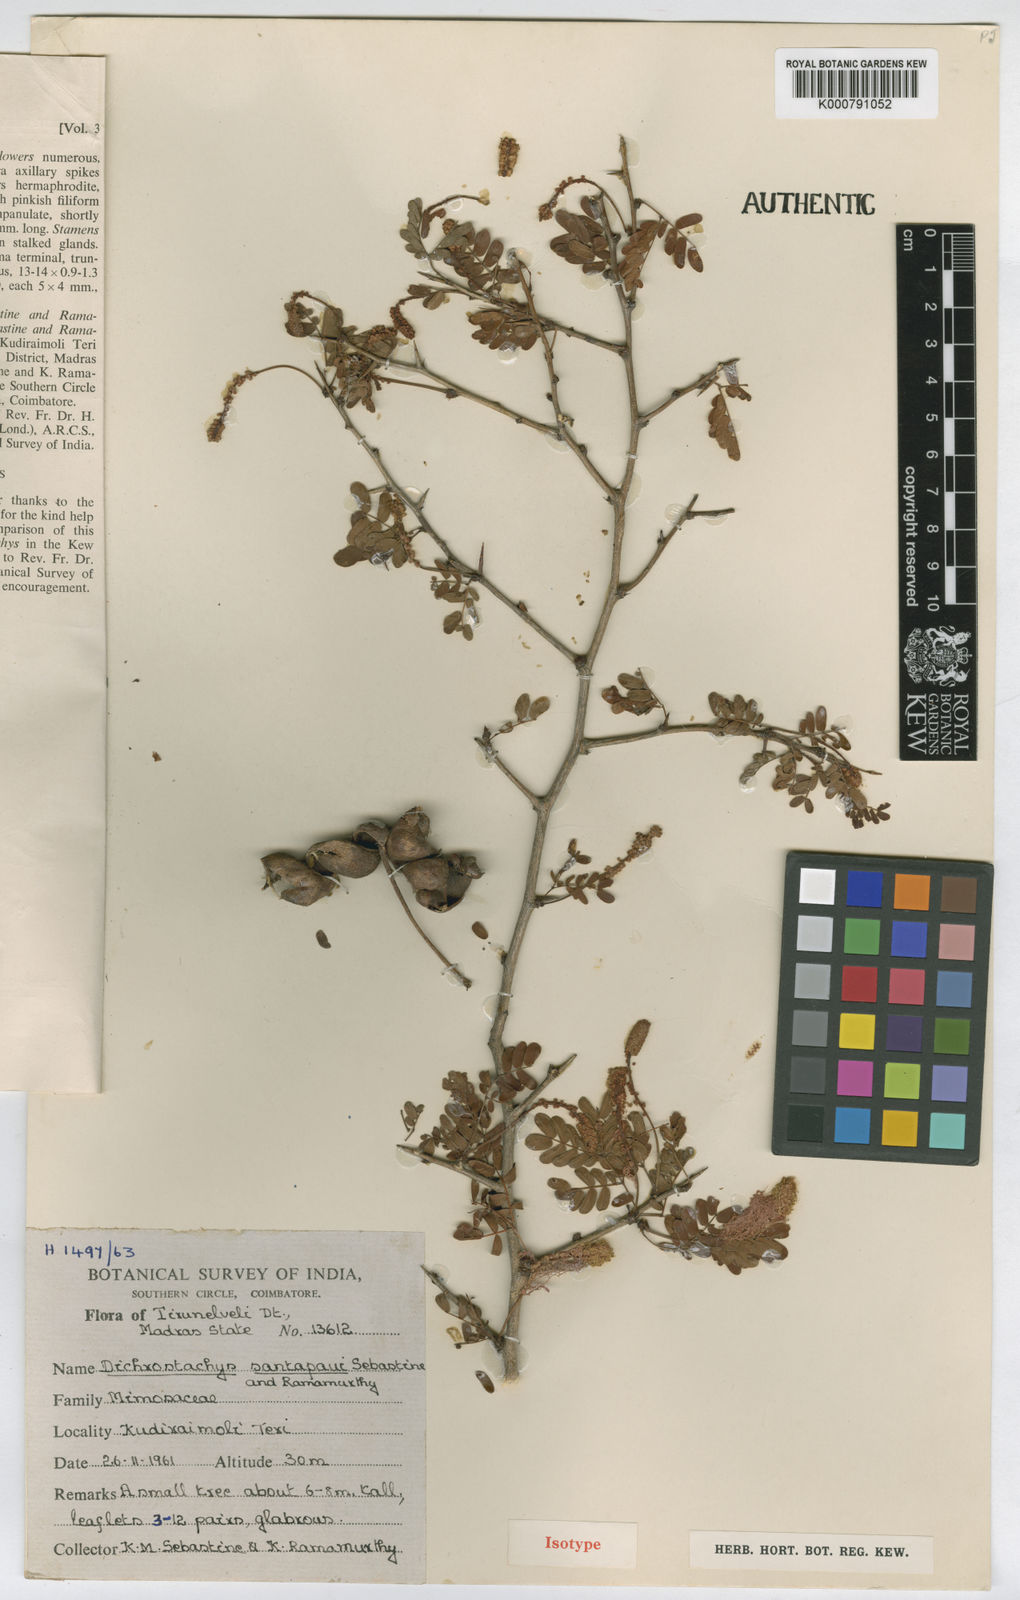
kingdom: Plantae
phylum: Tracheophyta
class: Magnoliopsida
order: Fabales
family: Fabaceae
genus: Dichrostachys
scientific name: Dichrostachys cinerea
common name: Sicklebush
